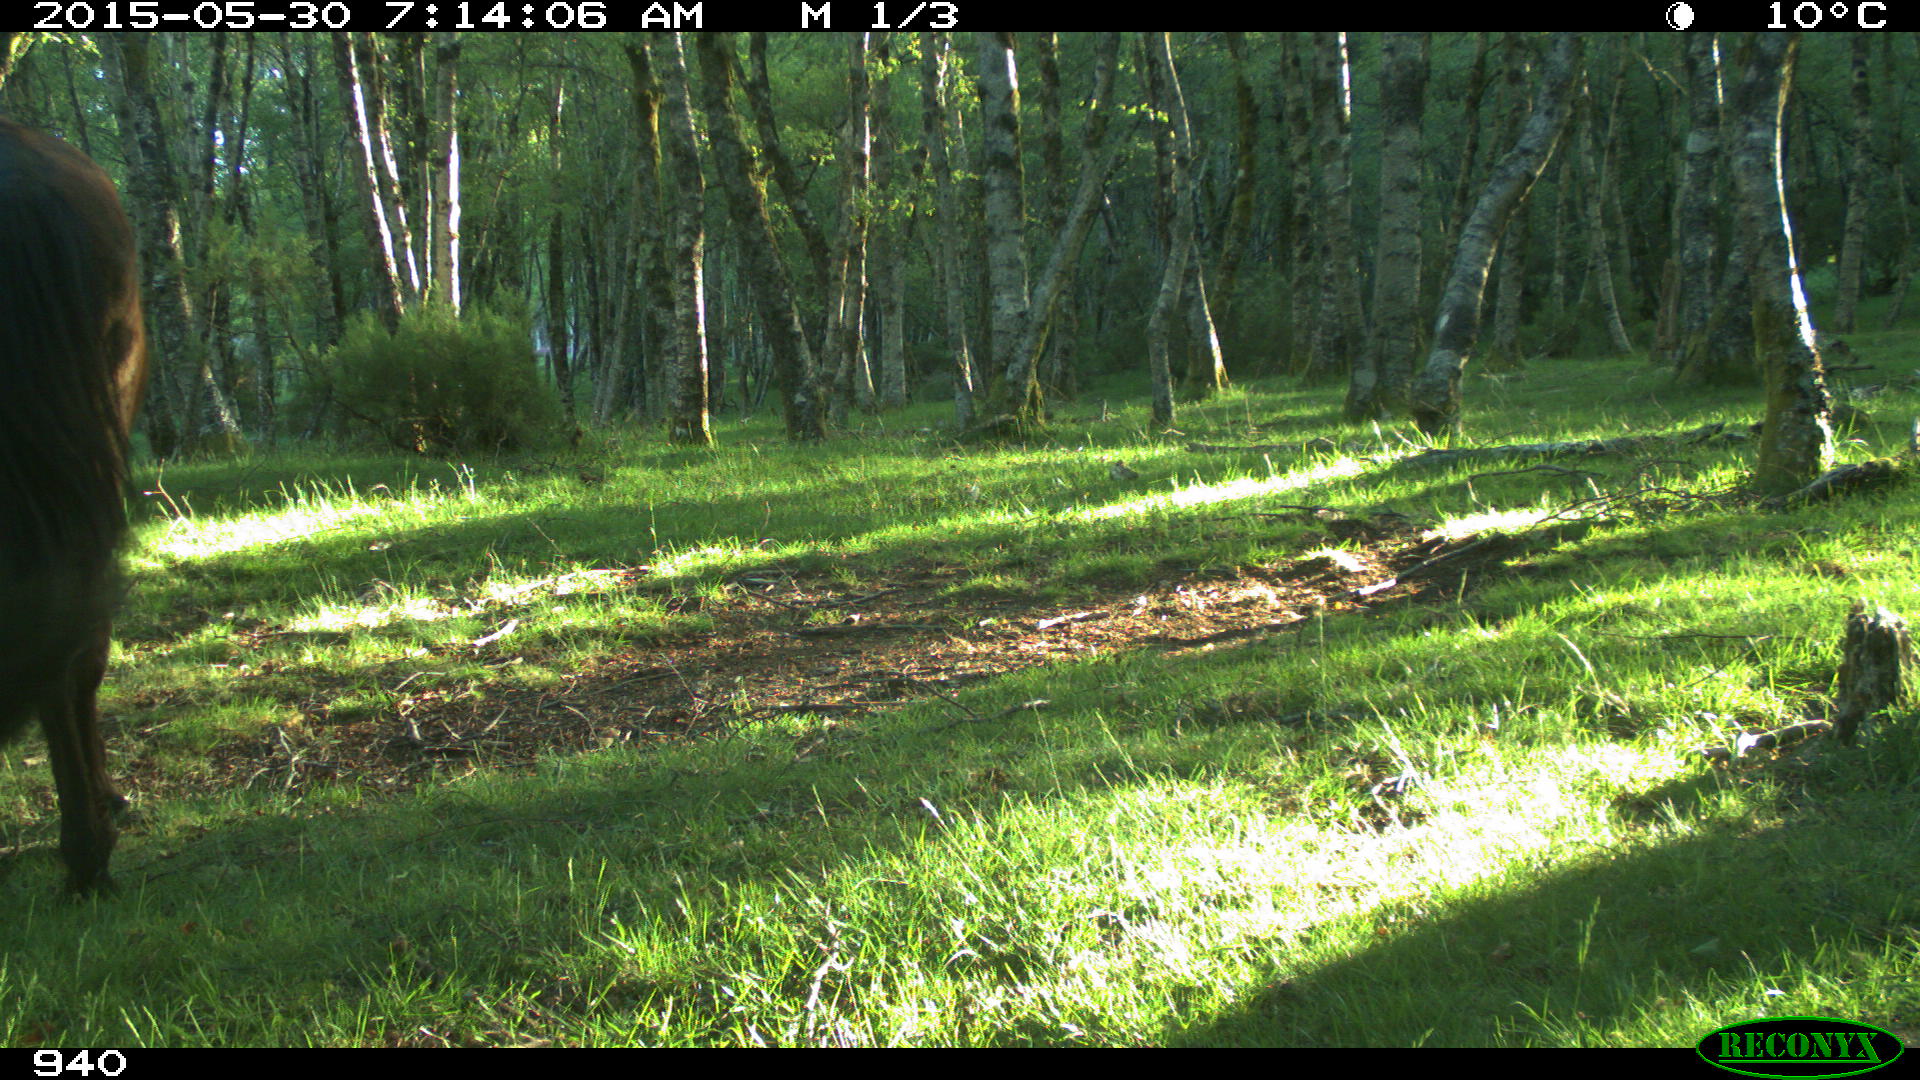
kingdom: Animalia
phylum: Chordata
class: Mammalia
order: Perissodactyla
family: Equidae
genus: Equus
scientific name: Equus caballus
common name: Horse
